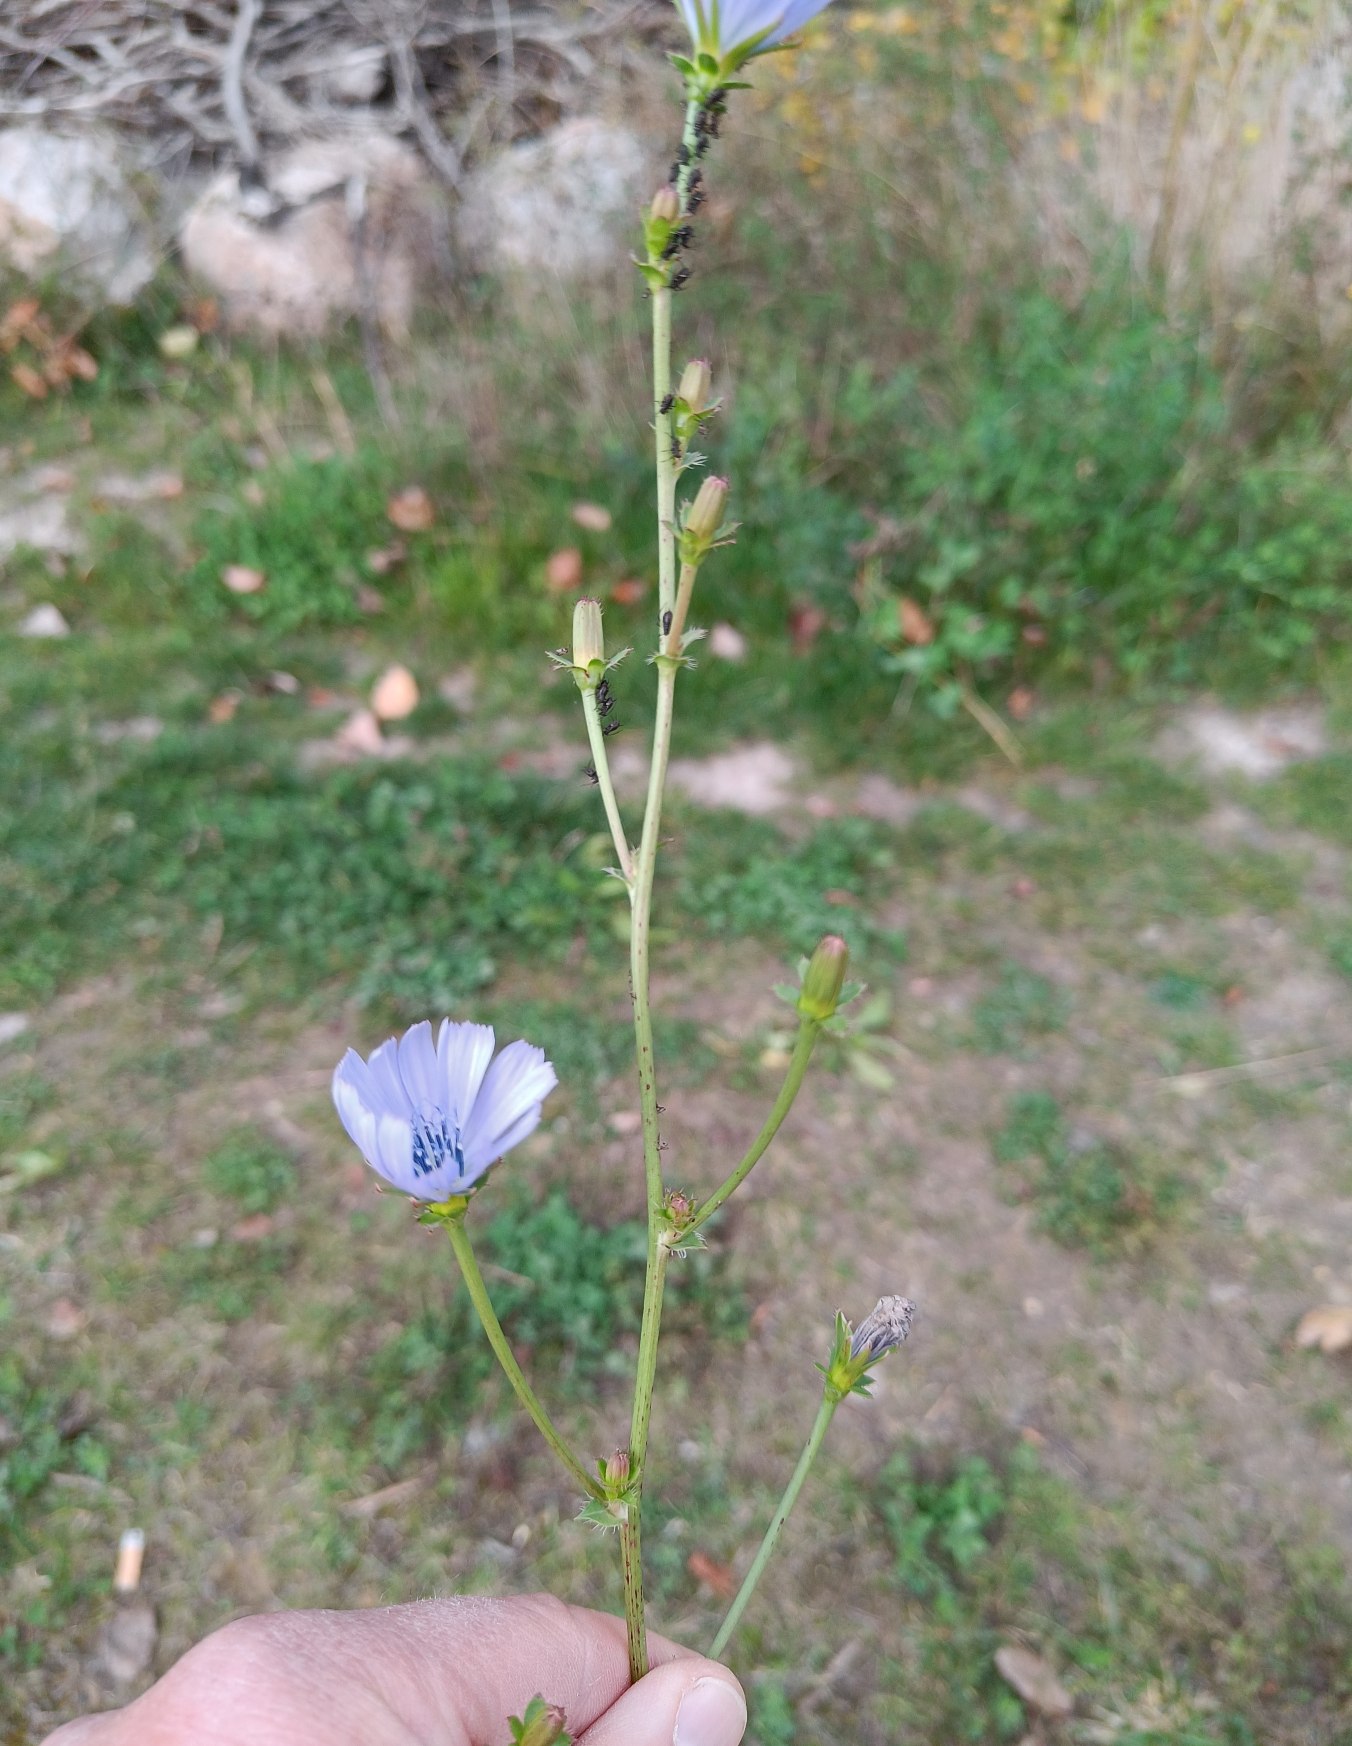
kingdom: Plantae
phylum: Tracheophyta
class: Magnoliopsida
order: Asterales
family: Asteraceae
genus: Cichorium
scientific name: Cichorium intybus
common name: Cikorie
